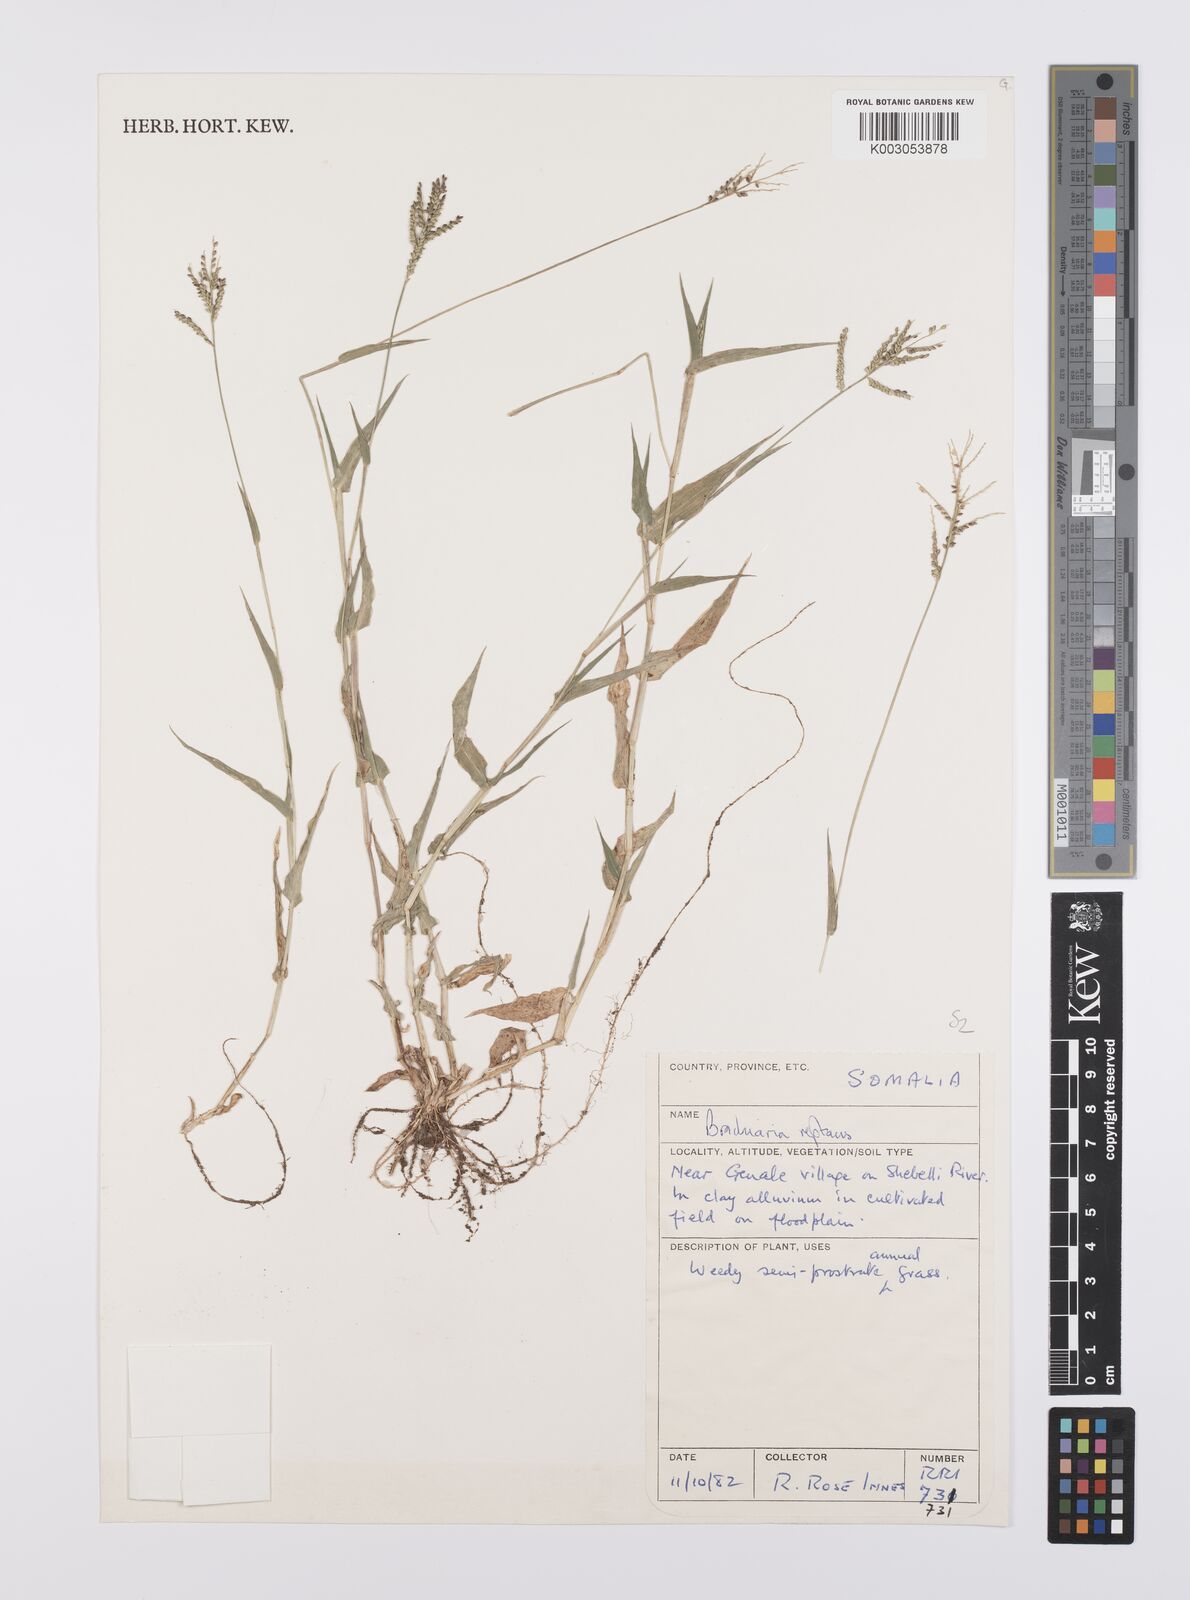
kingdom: Plantae
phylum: Tracheophyta
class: Liliopsida
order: Poales
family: Poaceae
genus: Urochloa
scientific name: Urochloa reptans
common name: Sprawling signalgrass
